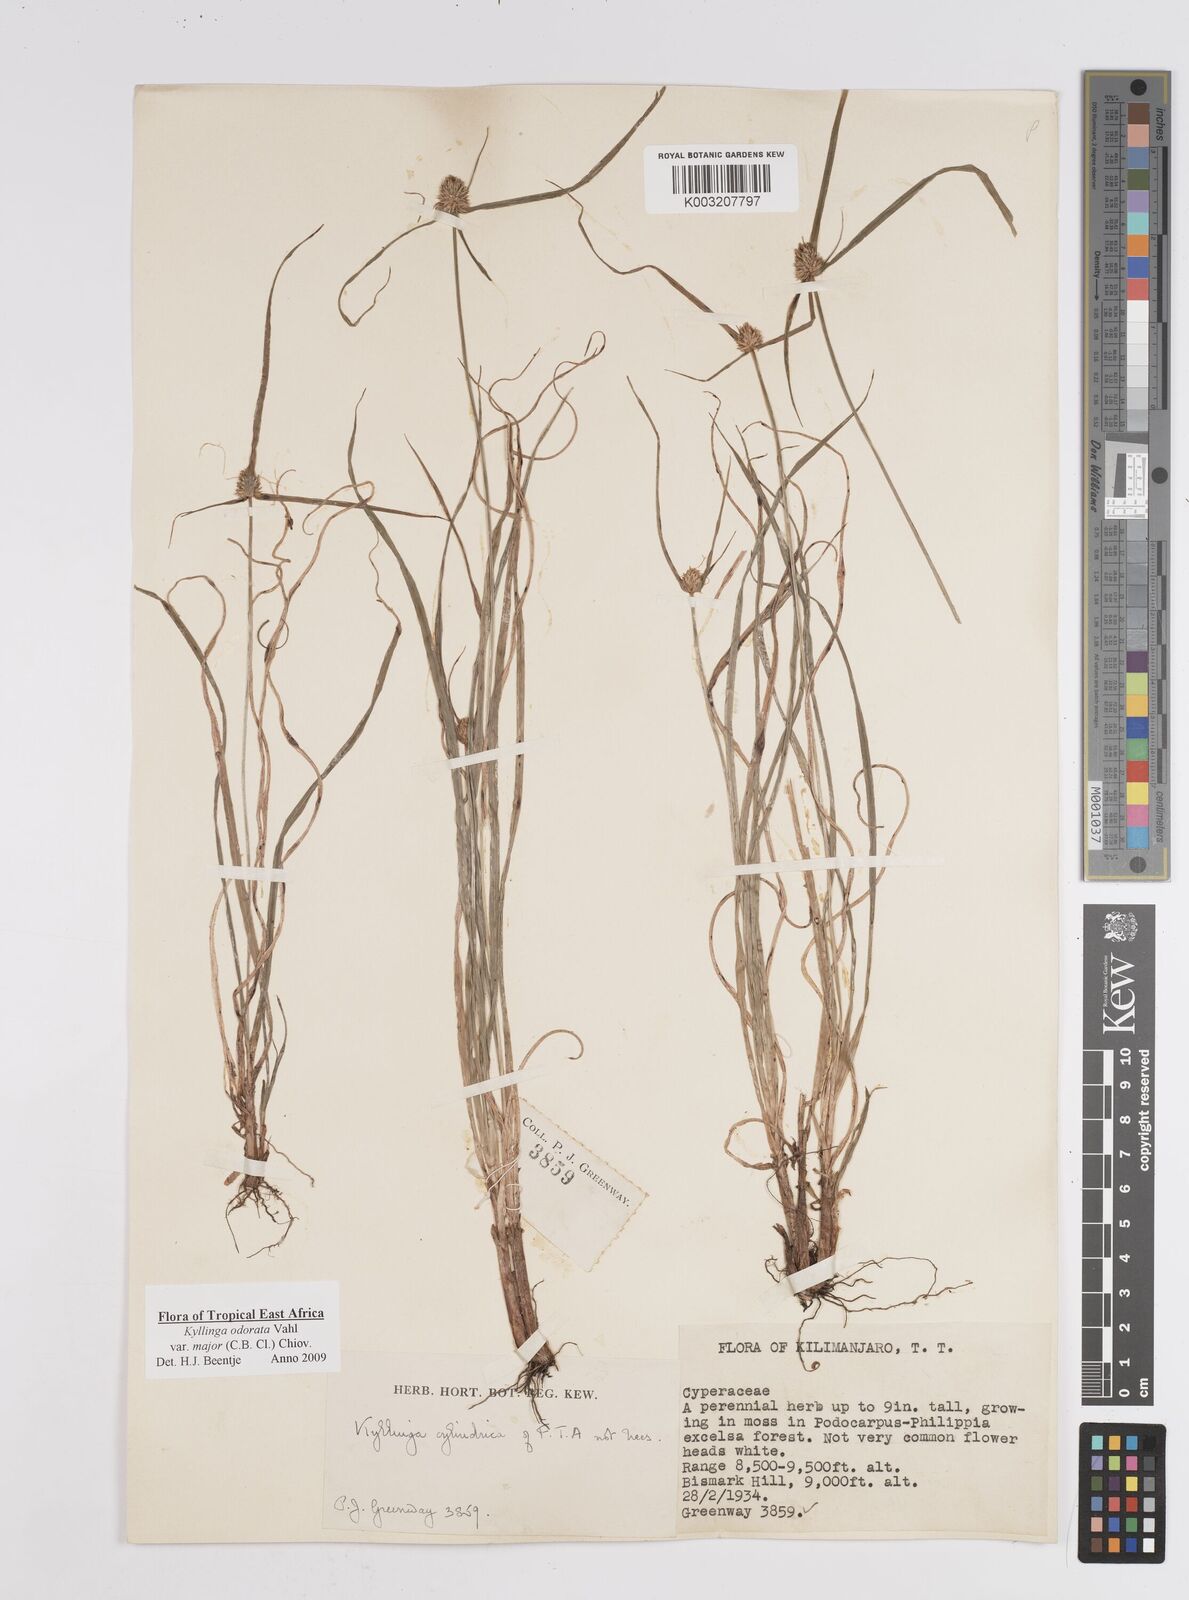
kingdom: Plantae
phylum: Tracheophyta
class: Liliopsida
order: Poales
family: Cyperaceae
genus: Cyperus
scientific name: Cyperus
